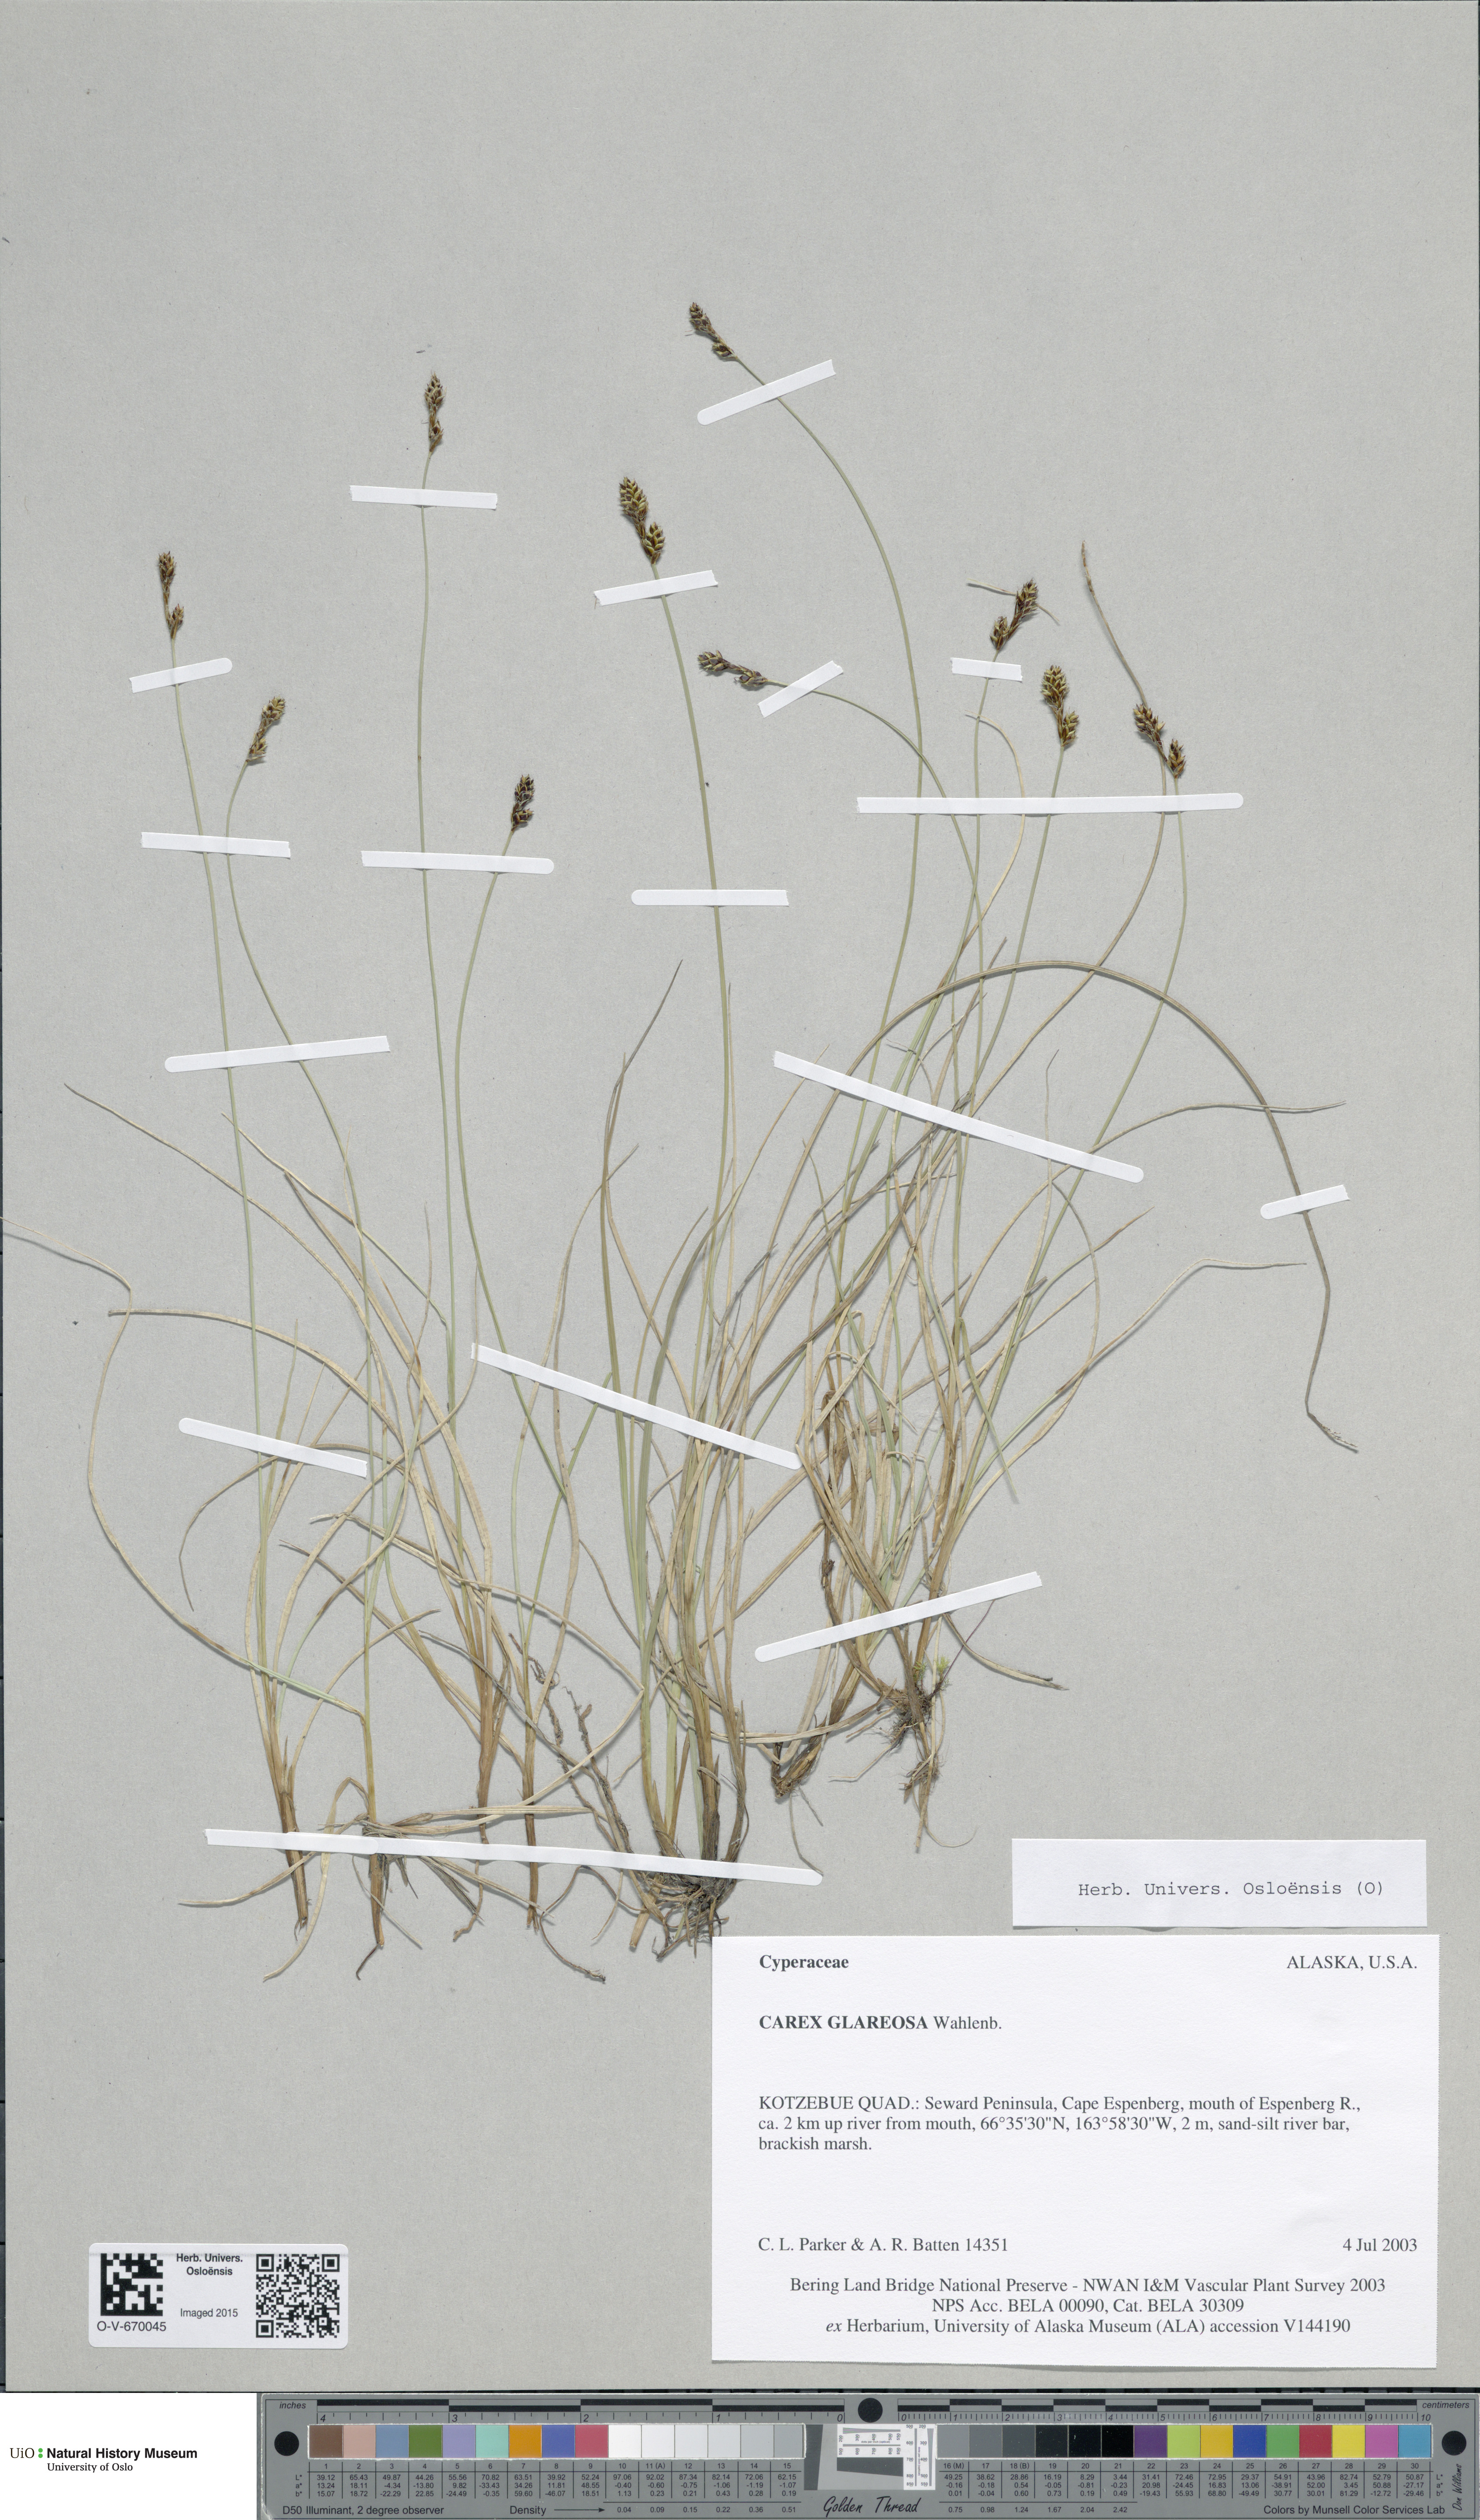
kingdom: Plantae
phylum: Tracheophyta
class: Liliopsida
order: Poales
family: Cyperaceae
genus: Carex
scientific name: Carex glareosa
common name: Clustered sedge
